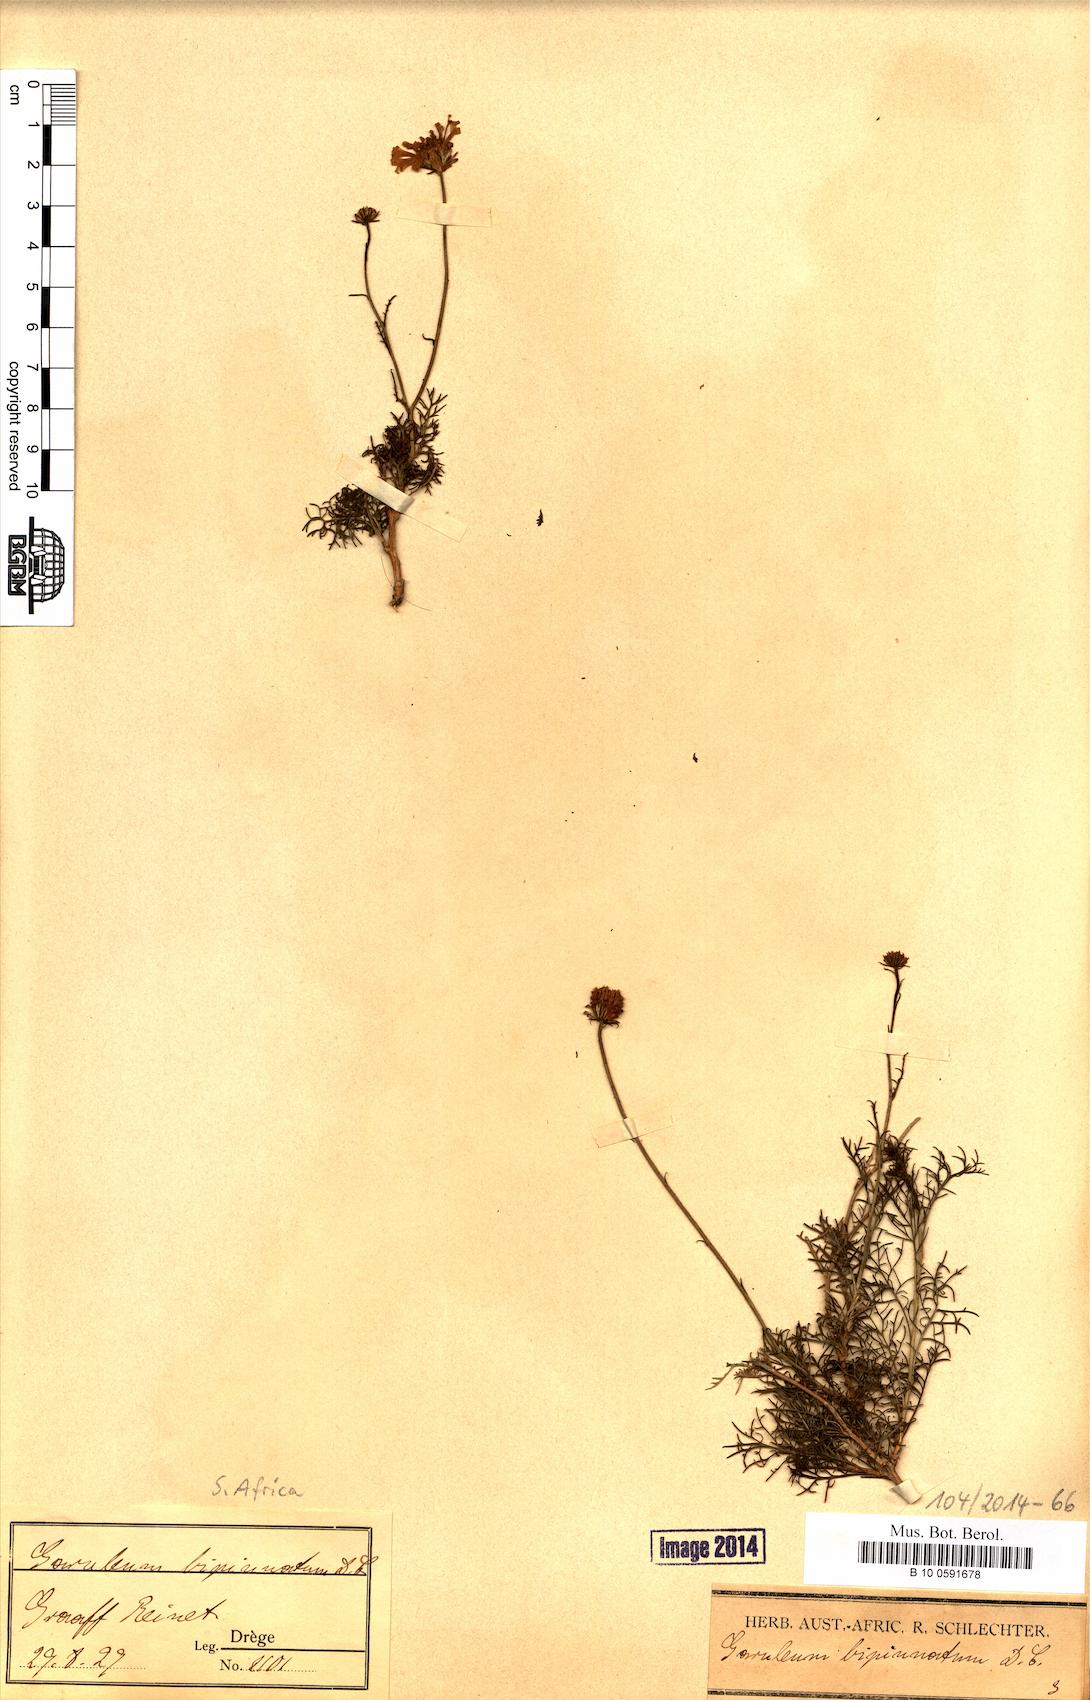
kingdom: Plantae
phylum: Tracheophyta
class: Magnoliopsida
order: Asterales
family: Asteraceae
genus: Garuleum
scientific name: Garuleum bipinnatum
